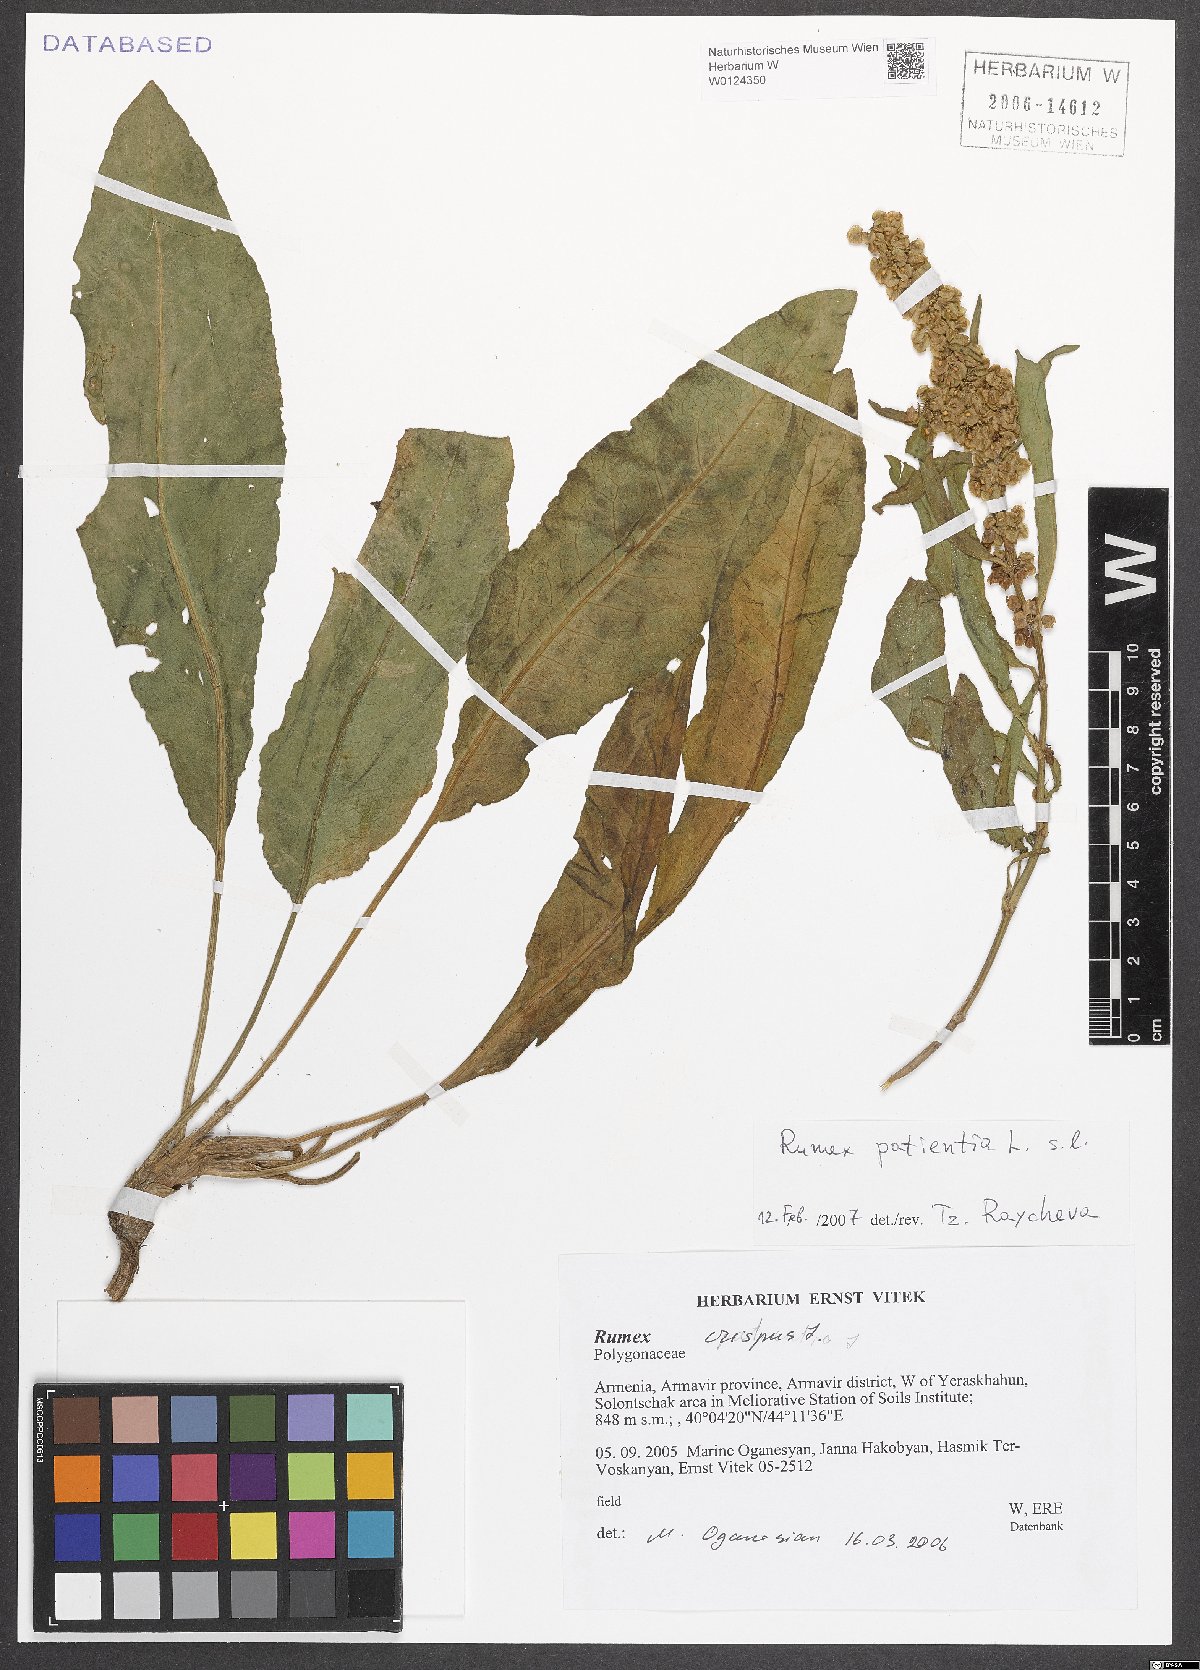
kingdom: Plantae
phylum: Tracheophyta
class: Magnoliopsida
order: Caryophyllales
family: Polygonaceae
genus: Rumex
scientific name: Rumex patientia
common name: Patience dock
